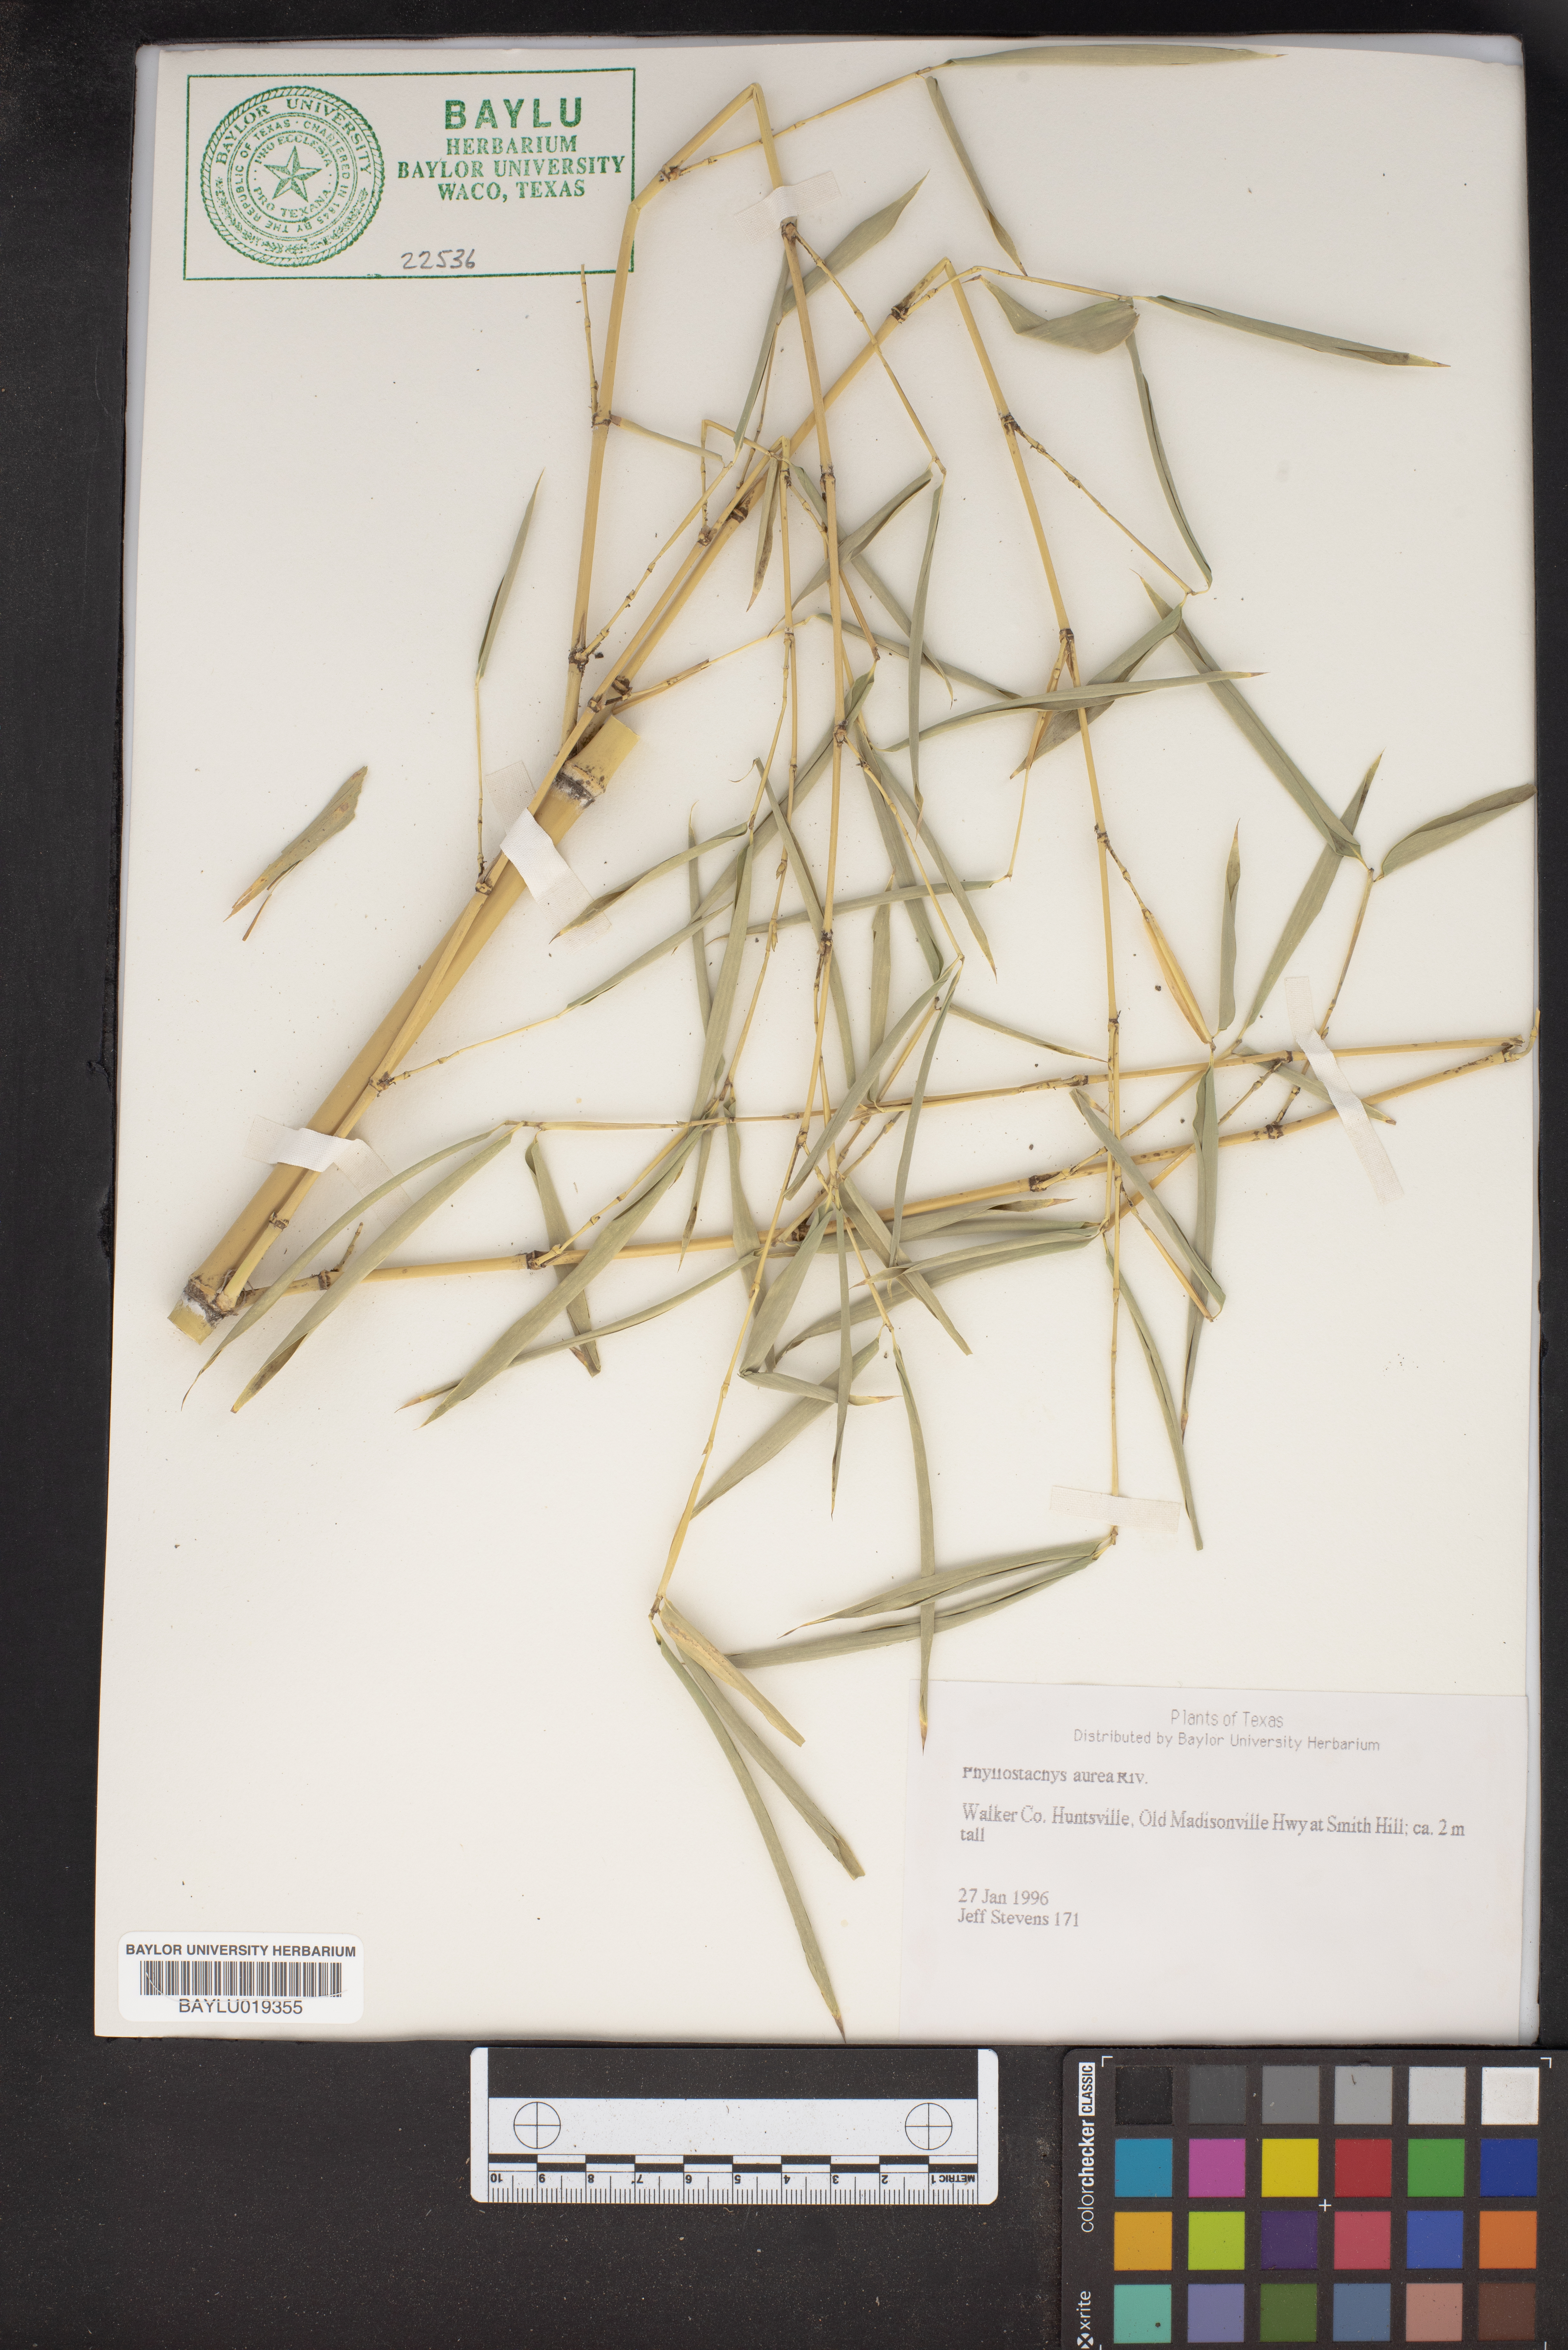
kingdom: Plantae
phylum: Tracheophyta
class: Liliopsida
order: Poales
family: Poaceae
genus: Phyllostachys
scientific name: Phyllostachys aurea
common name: Golden bamboo
